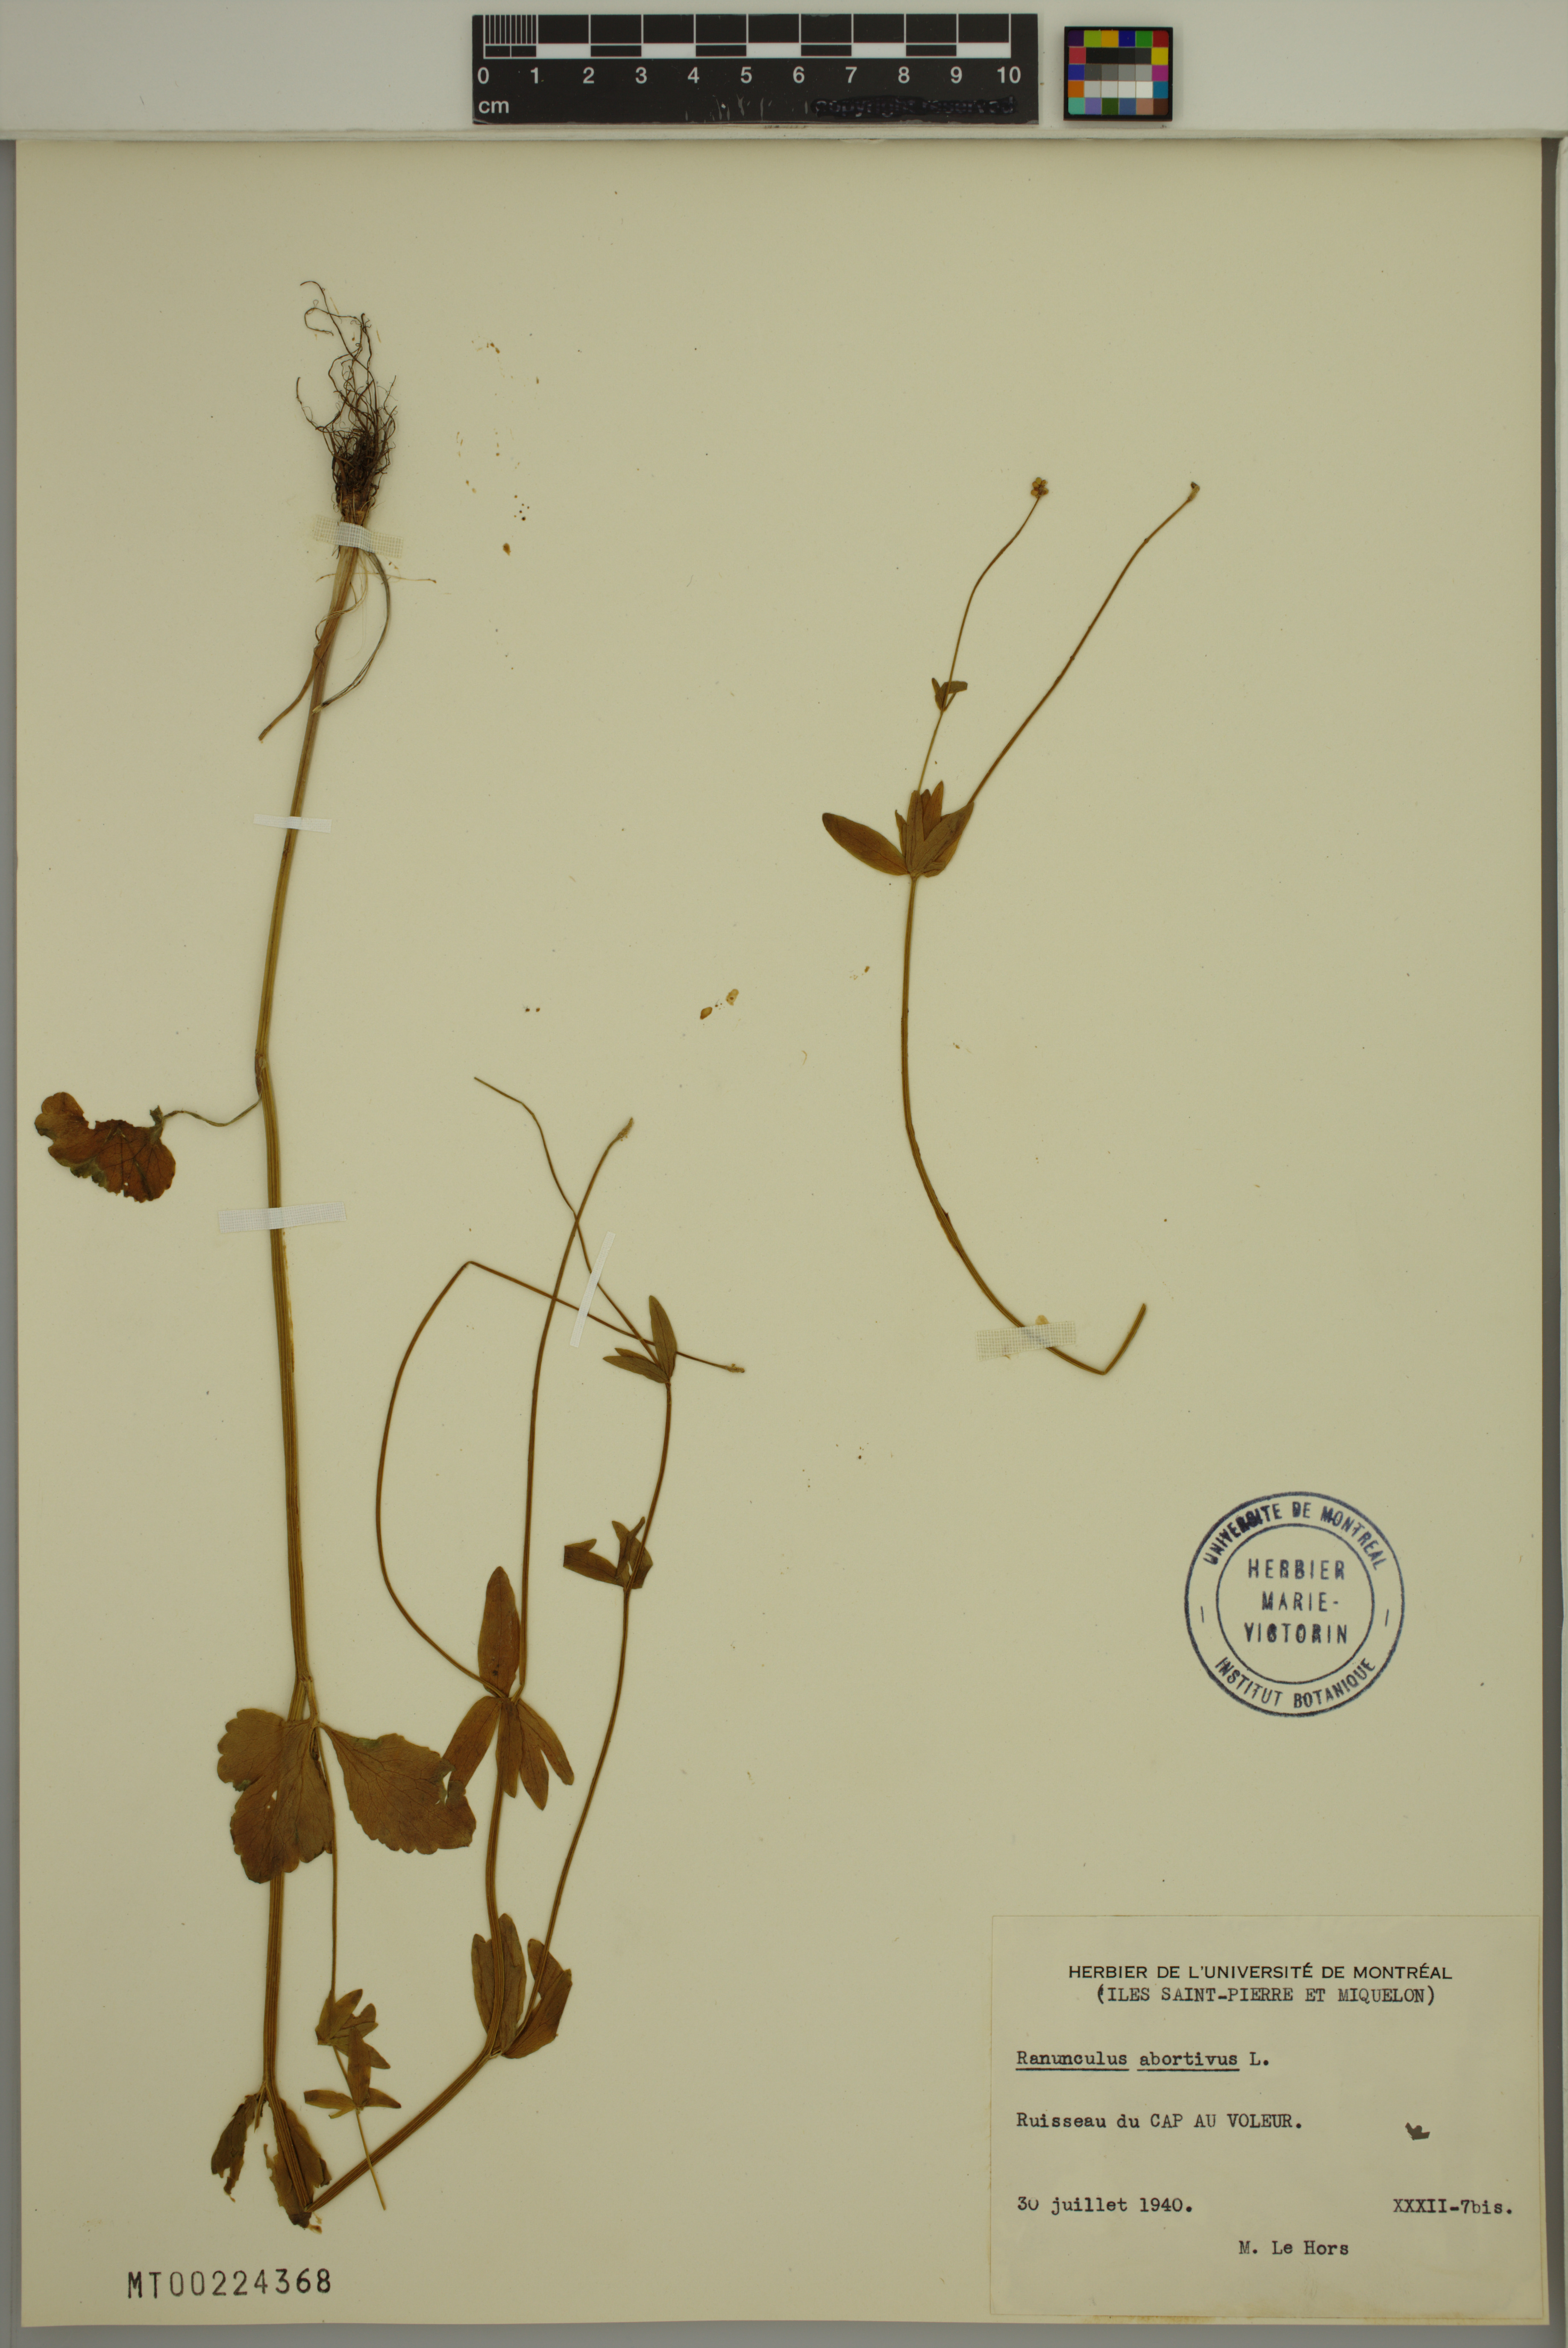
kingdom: Plantae
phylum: Tracheophyta
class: Magnoliopsida
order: Ranunculales
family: Ranunculaceae
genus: Ranunculus
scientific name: Ranunculus abortivus
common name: Early wood buttercup
